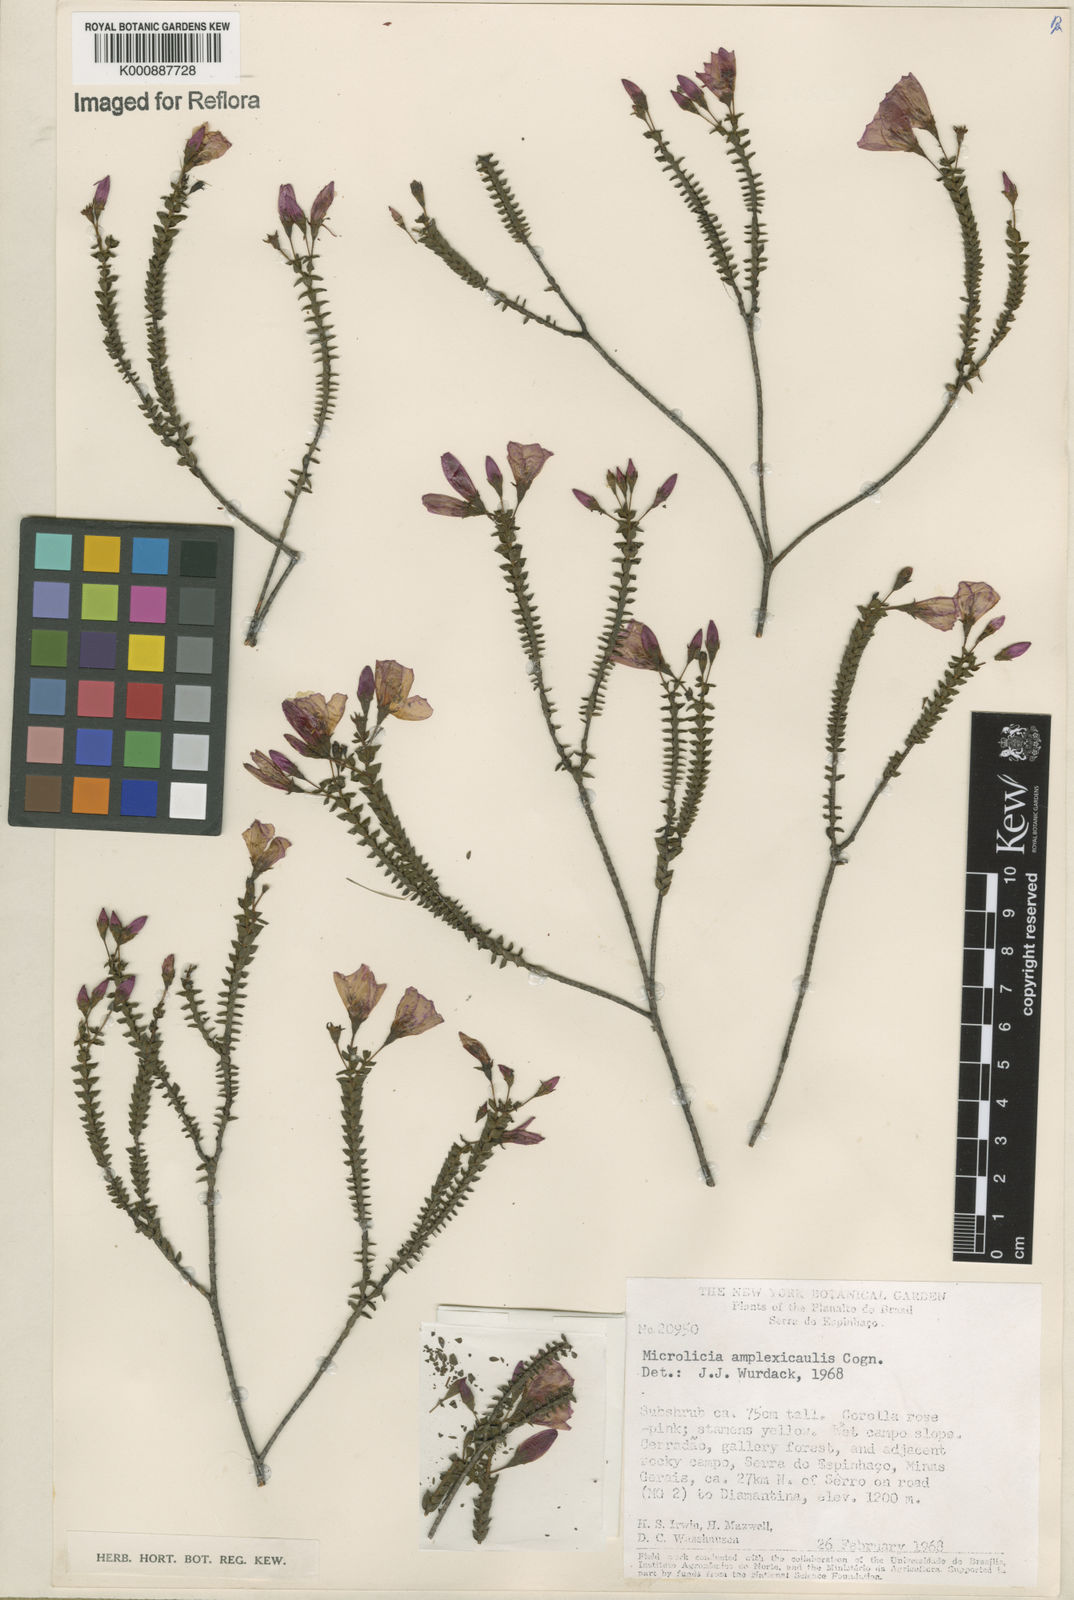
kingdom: Plantae
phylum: Tracheophyta
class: Magnoliopsida
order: Myrtales
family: Melastomataceae
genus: Microlicia
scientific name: Microlicia amplexicaulis
